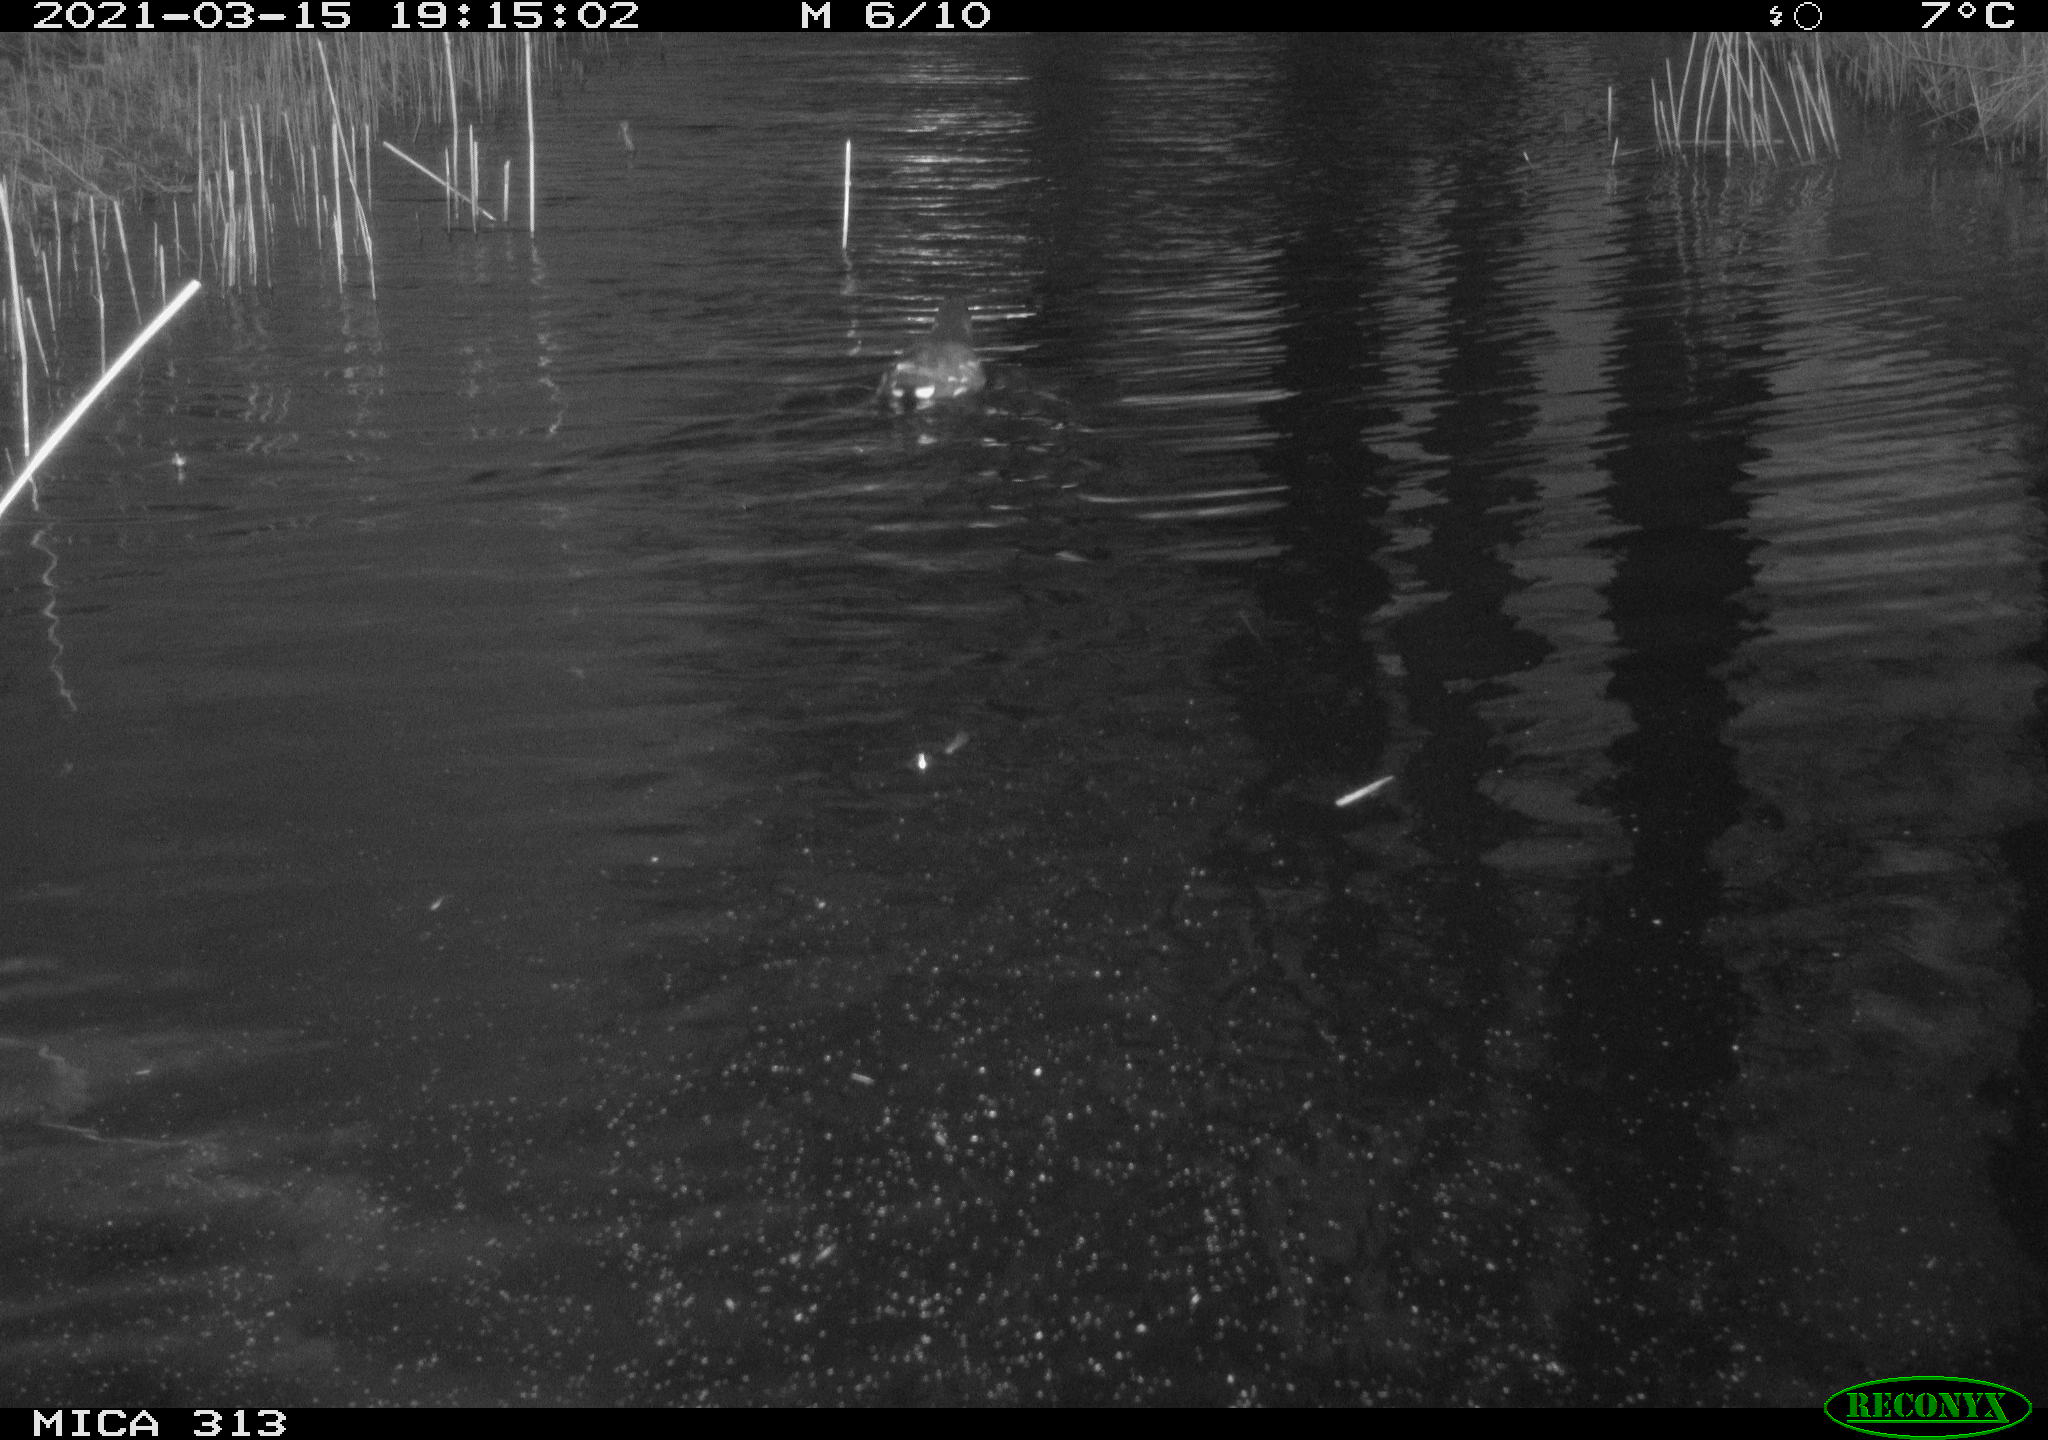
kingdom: Animalia
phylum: Chordata
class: Aves
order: Gruiformes
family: Rallidae
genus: Gallinula
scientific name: Gallinula chloropus
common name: Common moorhen
